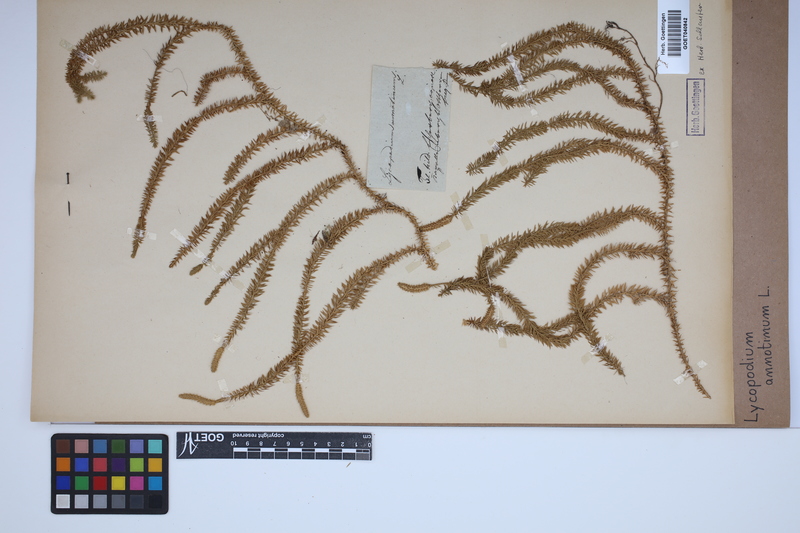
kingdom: Plantae
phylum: Tracheophyta
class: Lycopodiopsida
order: Lycopodiales
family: Lycopodiaceae
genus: Spinulum
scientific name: Spinulum annotinum
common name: Interrupted club-moss
